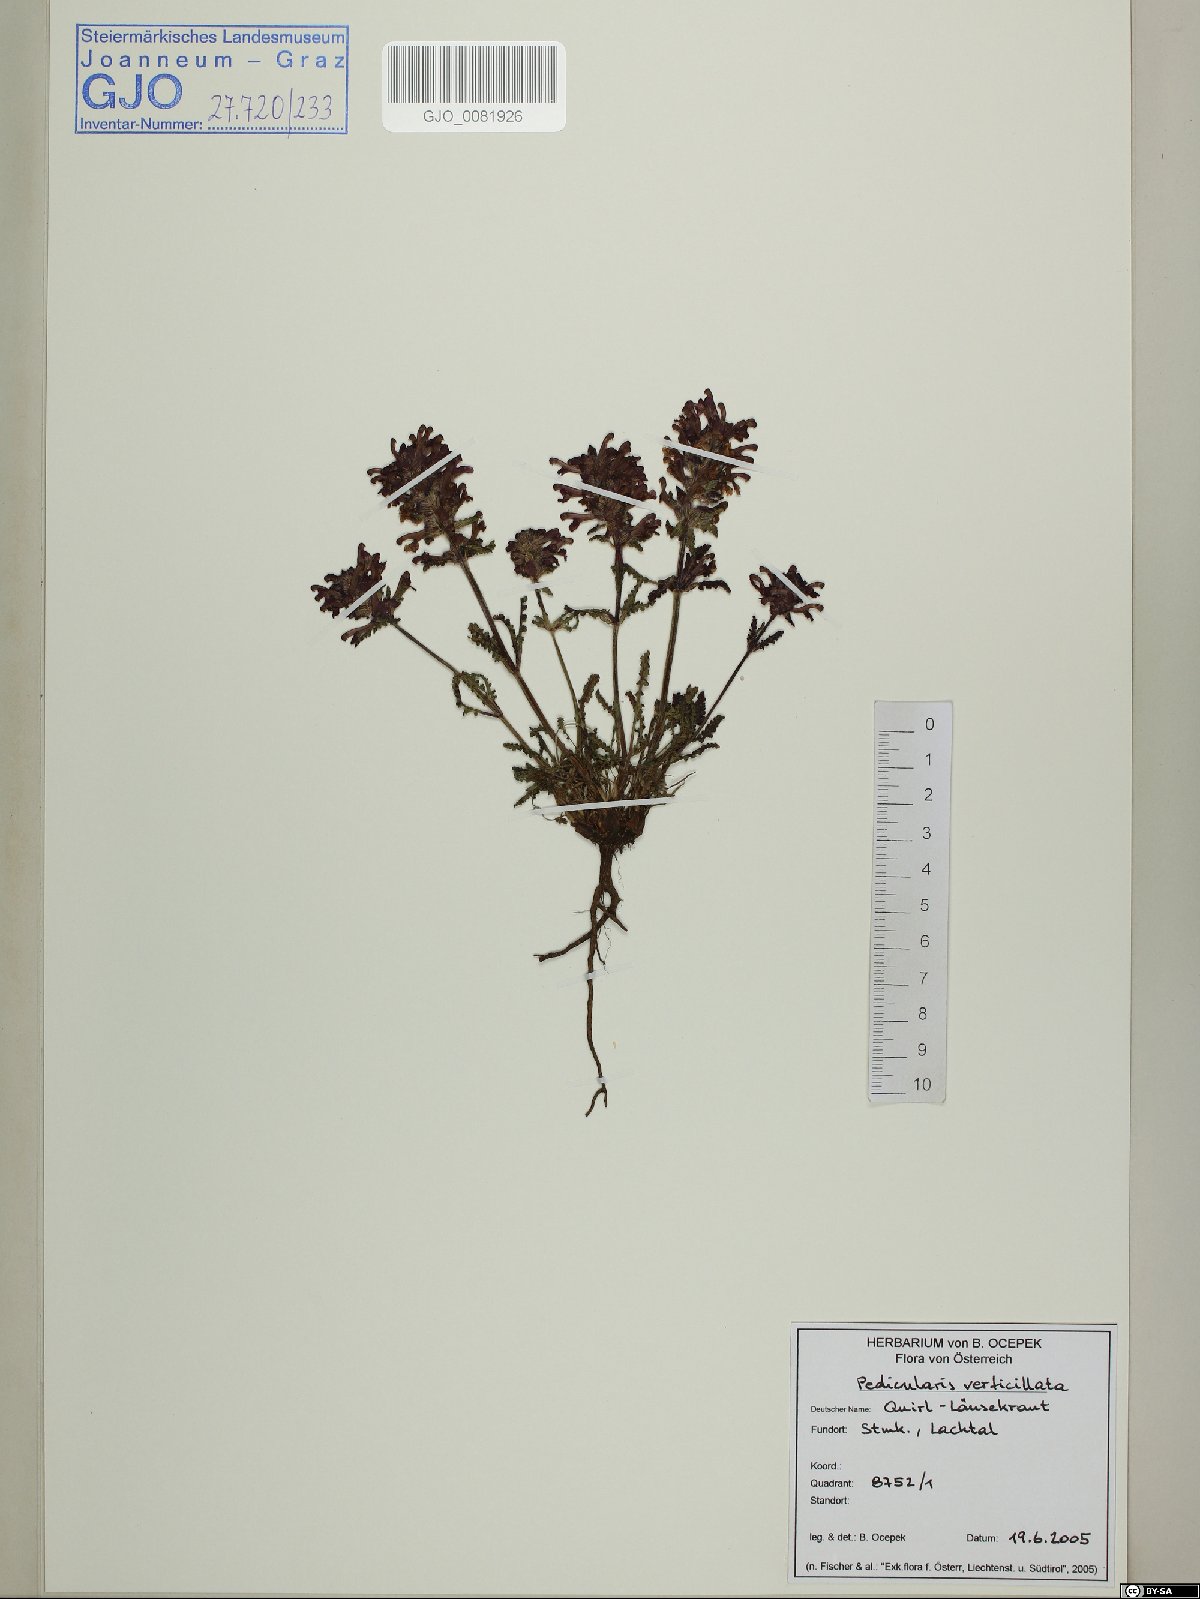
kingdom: Plantae
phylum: Tracheophyta
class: Magnoliopsida
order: Lamiales
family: Orobanchaceae
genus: Pedicularis
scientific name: Pedicularis verticillata
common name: Whorled lousewort
